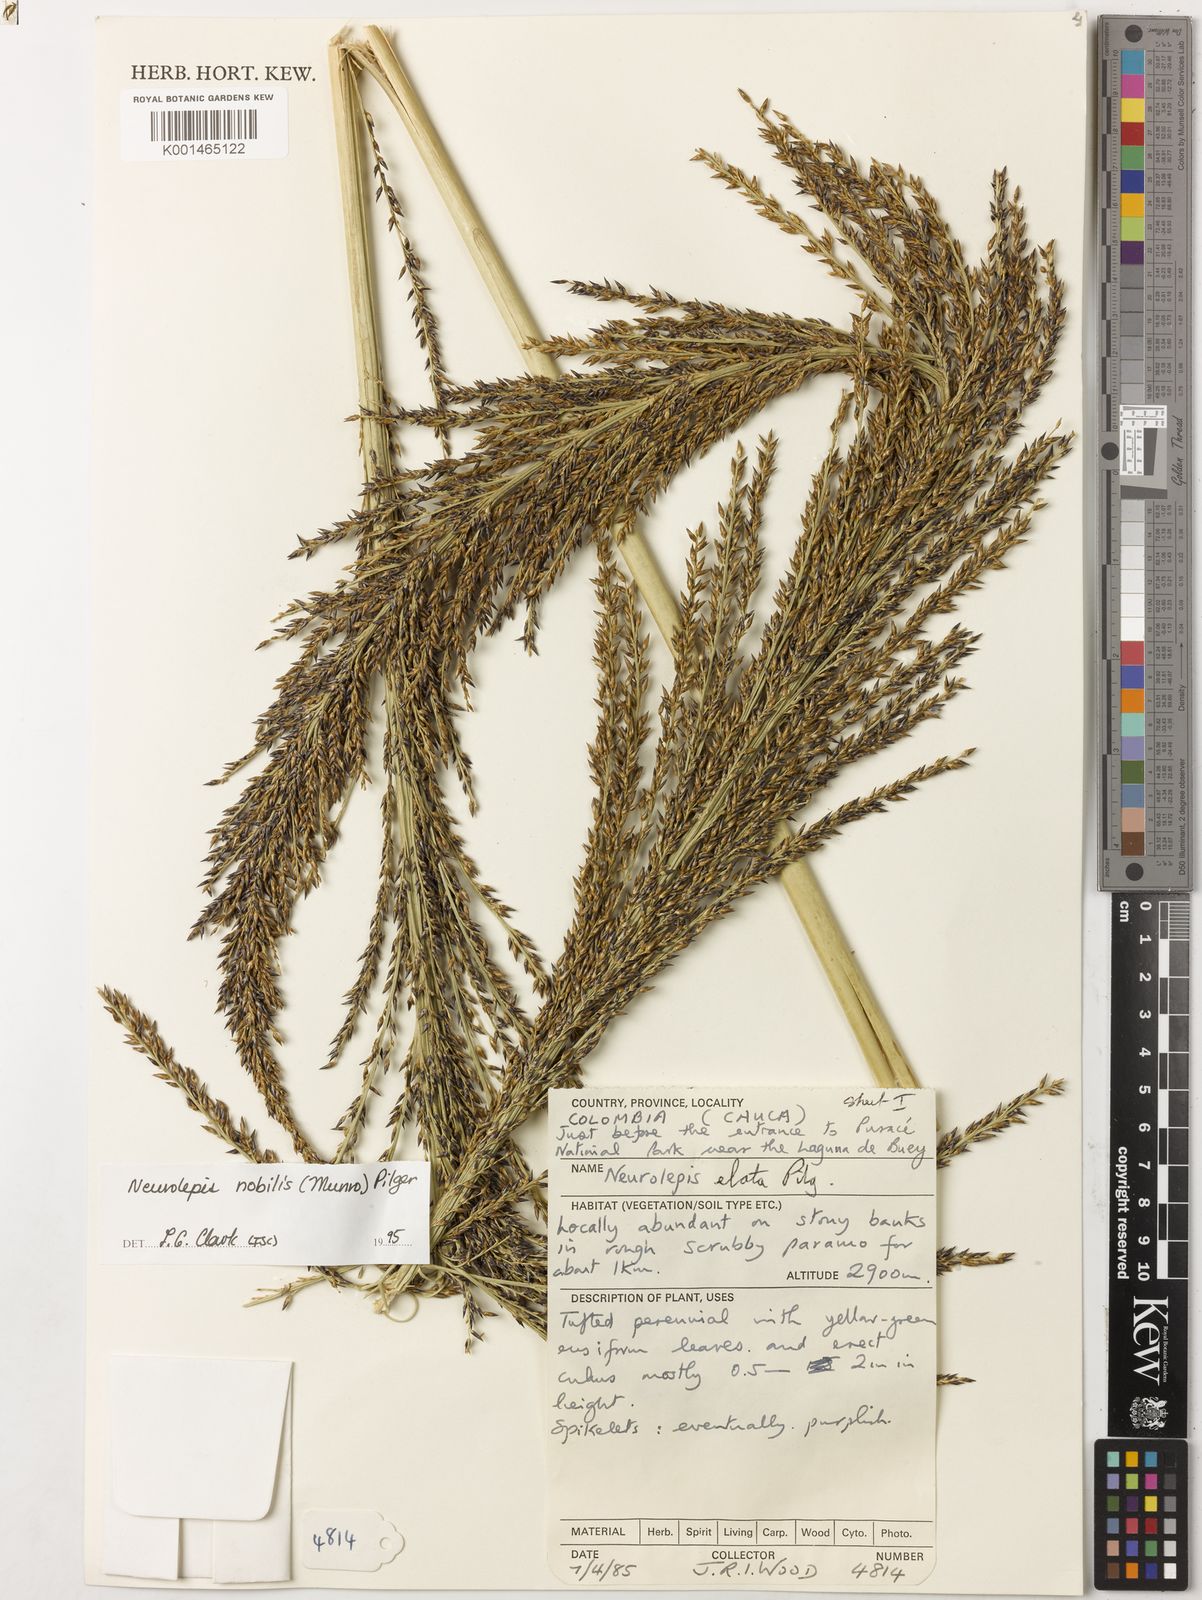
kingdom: Plantae
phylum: Tracheophyta
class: Liliopsida
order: Poales
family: Poaceae
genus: Chusquea
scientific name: Chusquea nobilis
